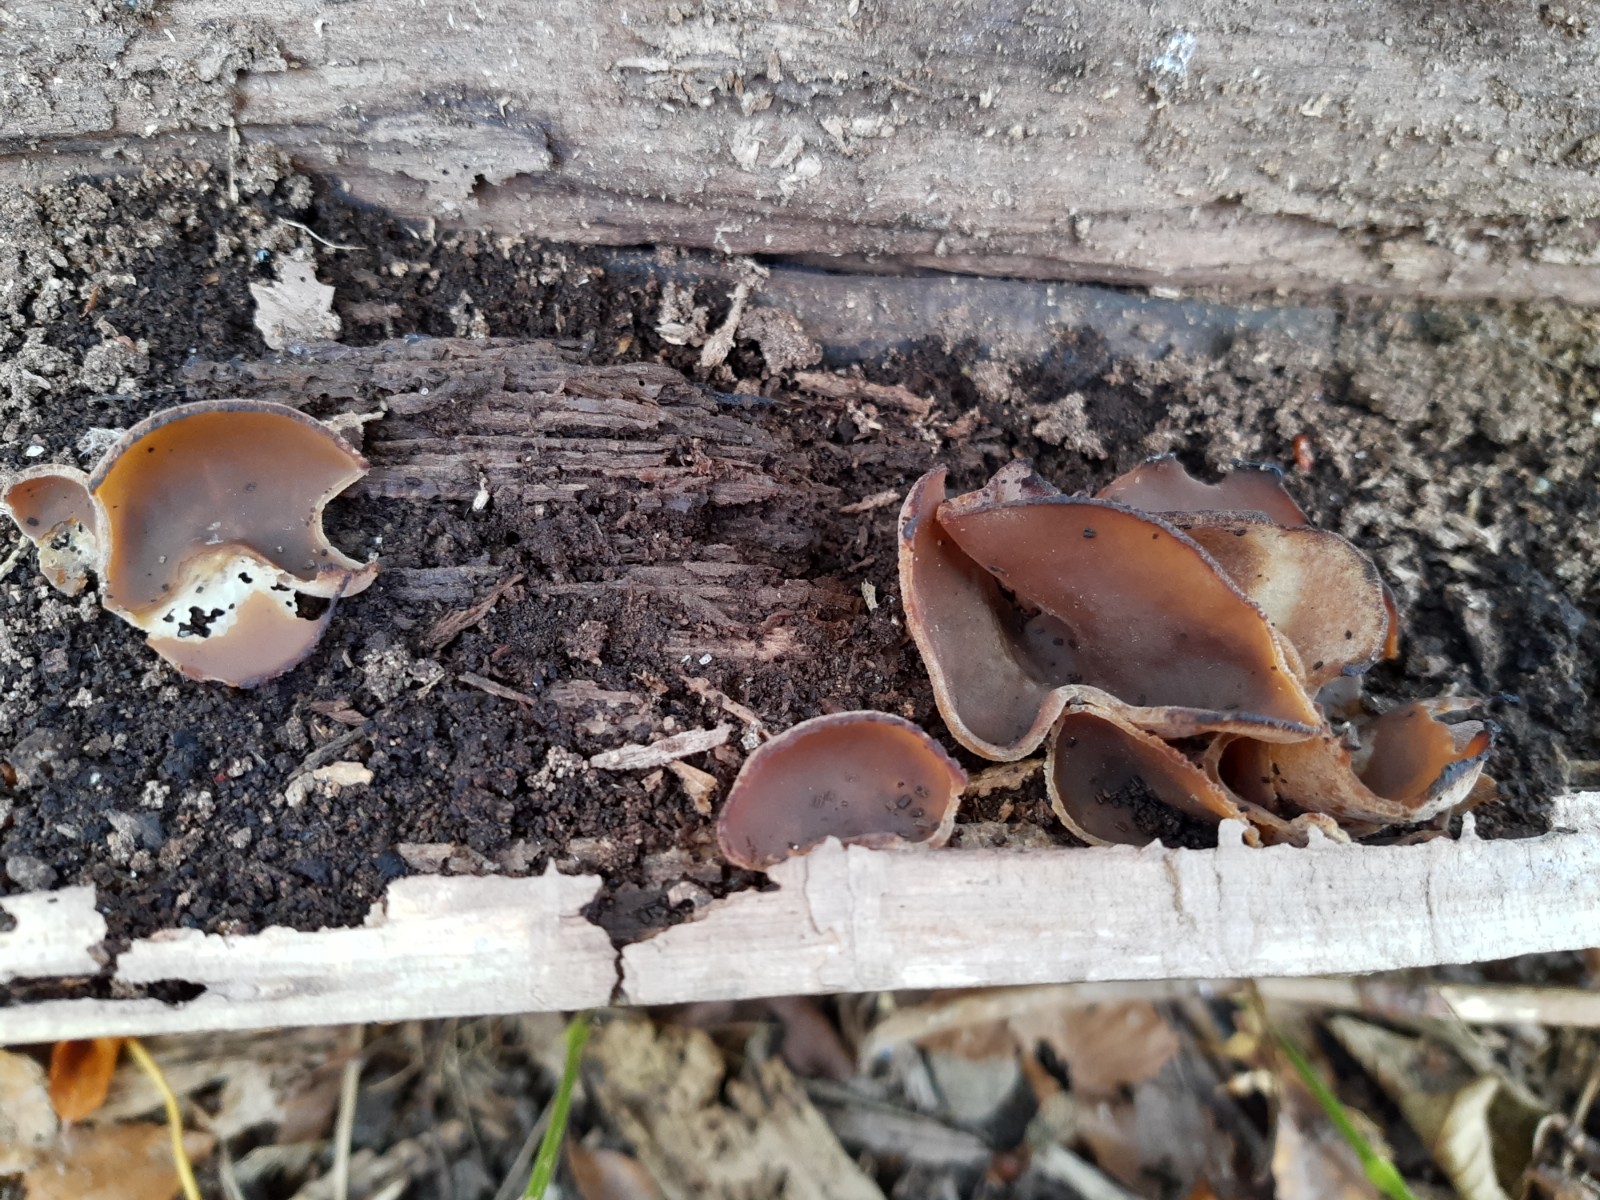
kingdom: Fungi
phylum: Ascomycota
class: Pezizomycetes
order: Pezizales
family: Pezizaceae
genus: Peziza
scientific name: Peziza varia
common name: Ved-bægersvamp
